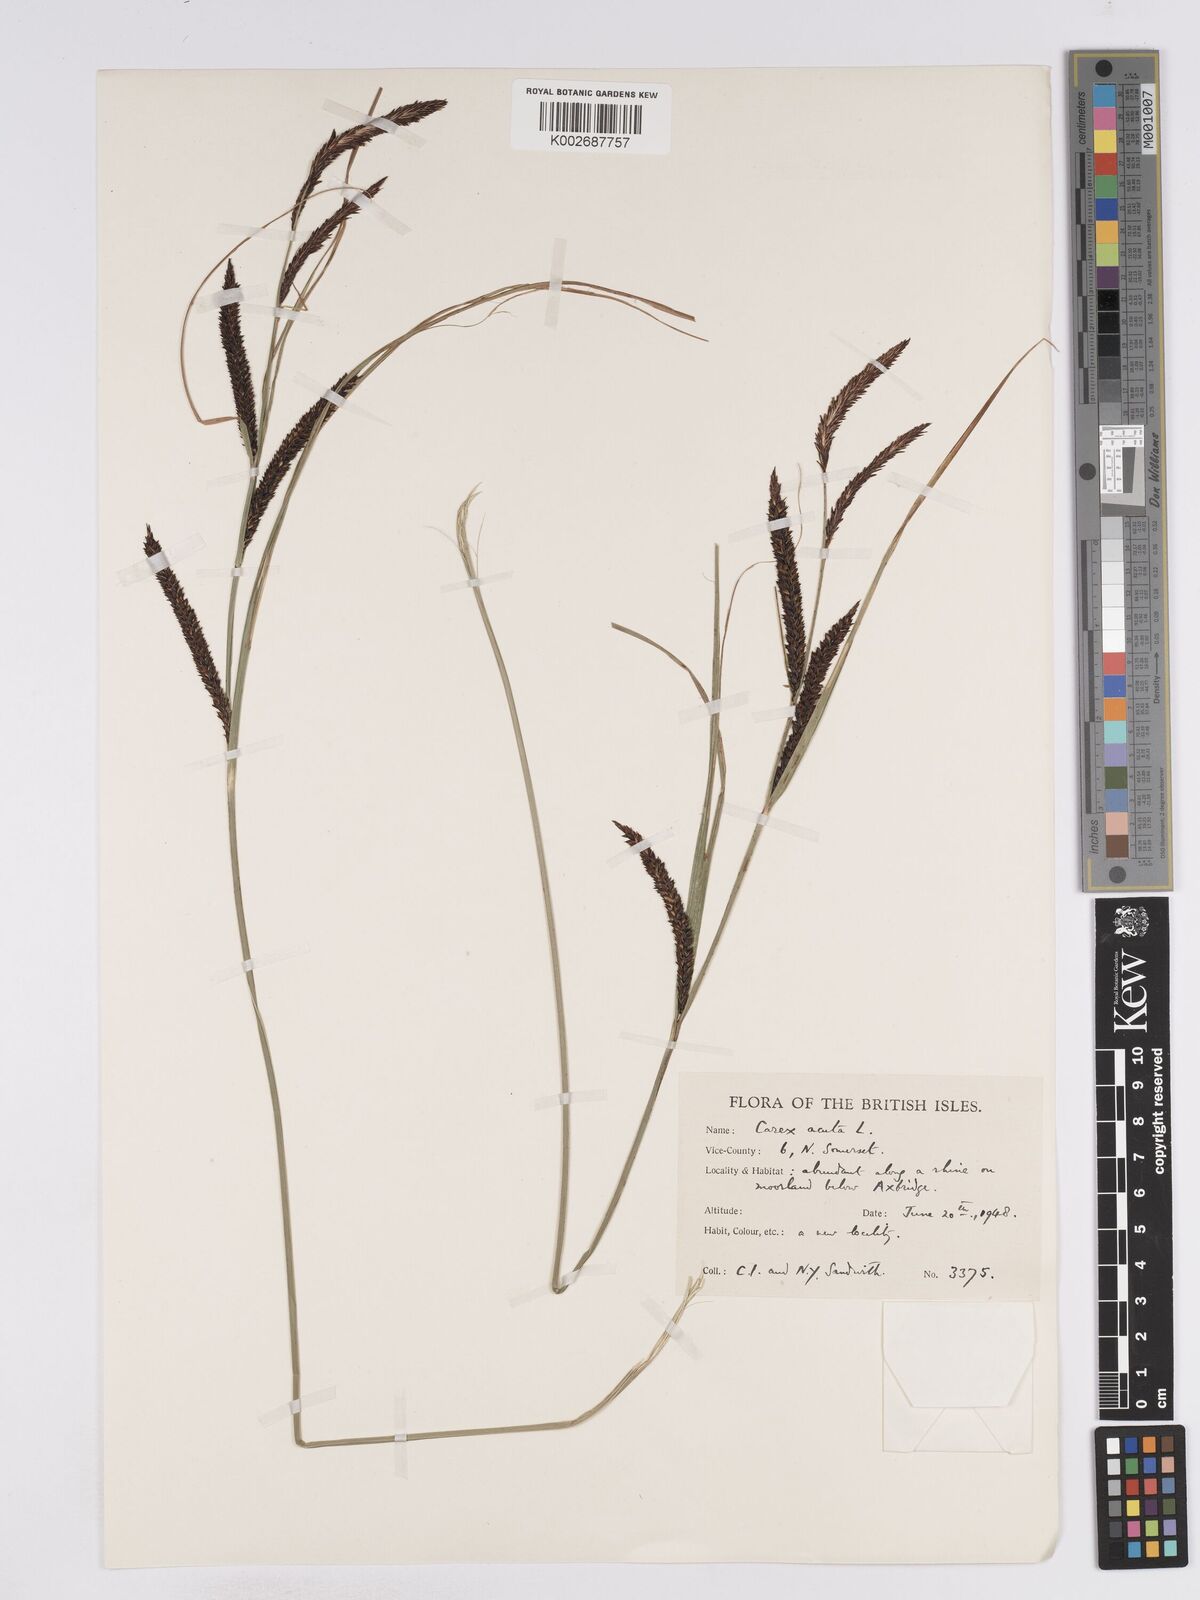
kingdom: Plantae
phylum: Tracheophyta
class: Liliopsida
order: Poales
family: Cyperaceae
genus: Carex
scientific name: Carex acuta
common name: Slender tufted-sedge
